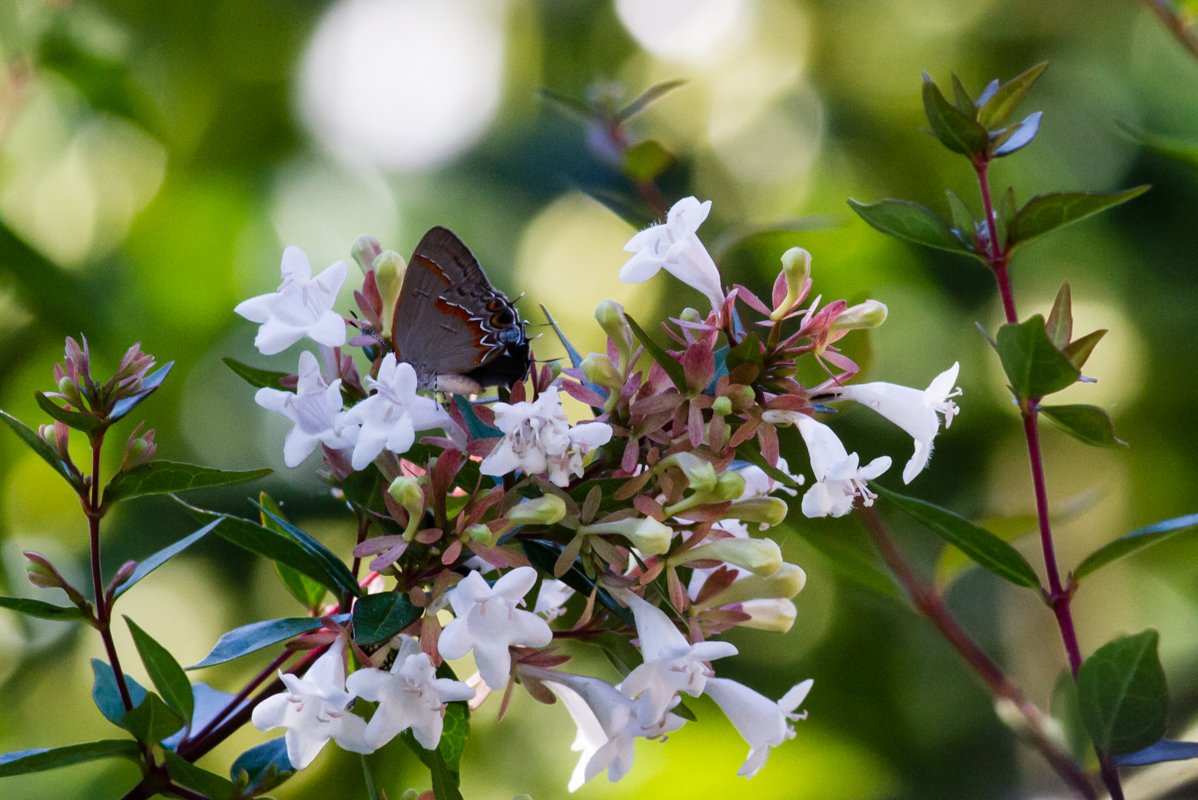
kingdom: Animalia
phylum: Arthropoda
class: Insecta
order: Lepidoptera
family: Lycaenidae
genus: Calycopis
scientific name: Calycopis cecrops
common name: Red-banded Hairstreak
